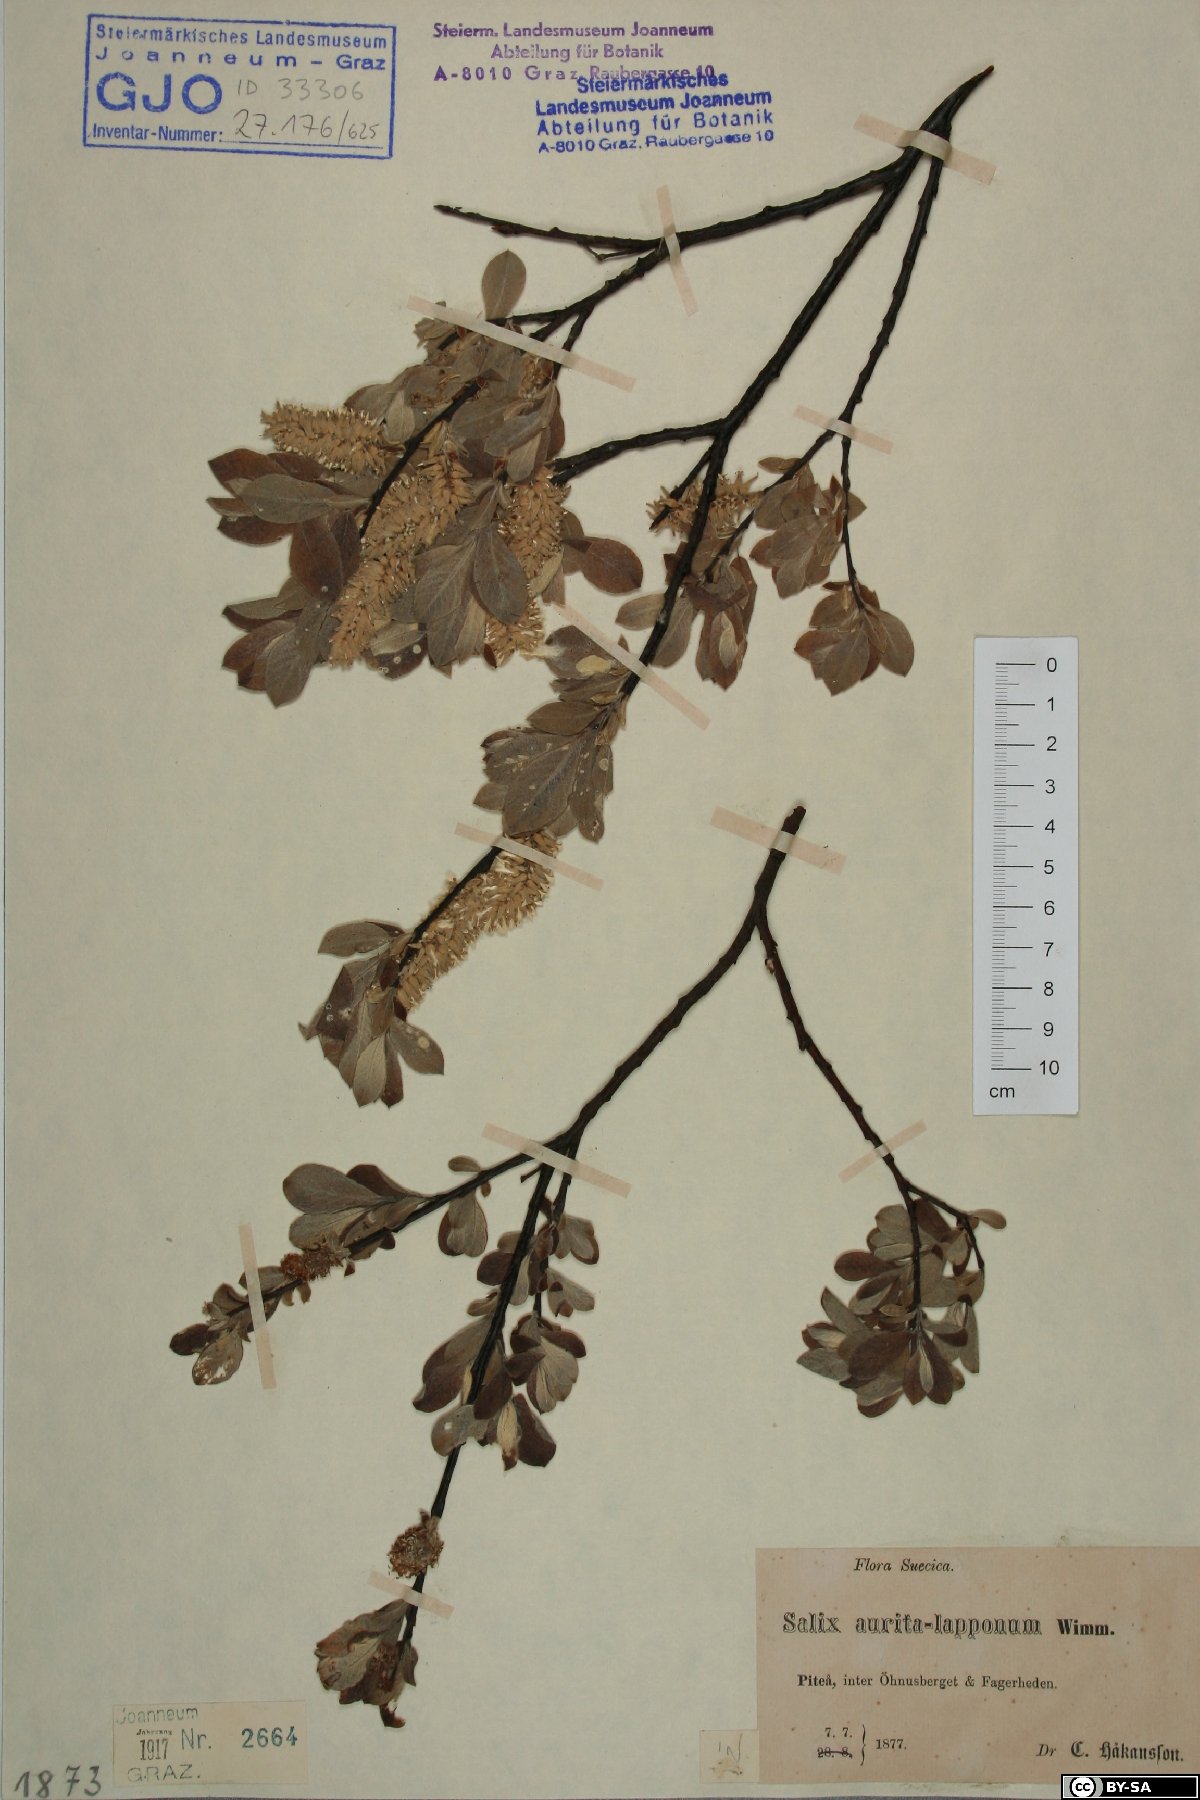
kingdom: Plantae
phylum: Tracheophyta
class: Magnoliopsida
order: Malpighiales
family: Salicaceae
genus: Salix
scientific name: Salix aurita
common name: Eared willow
